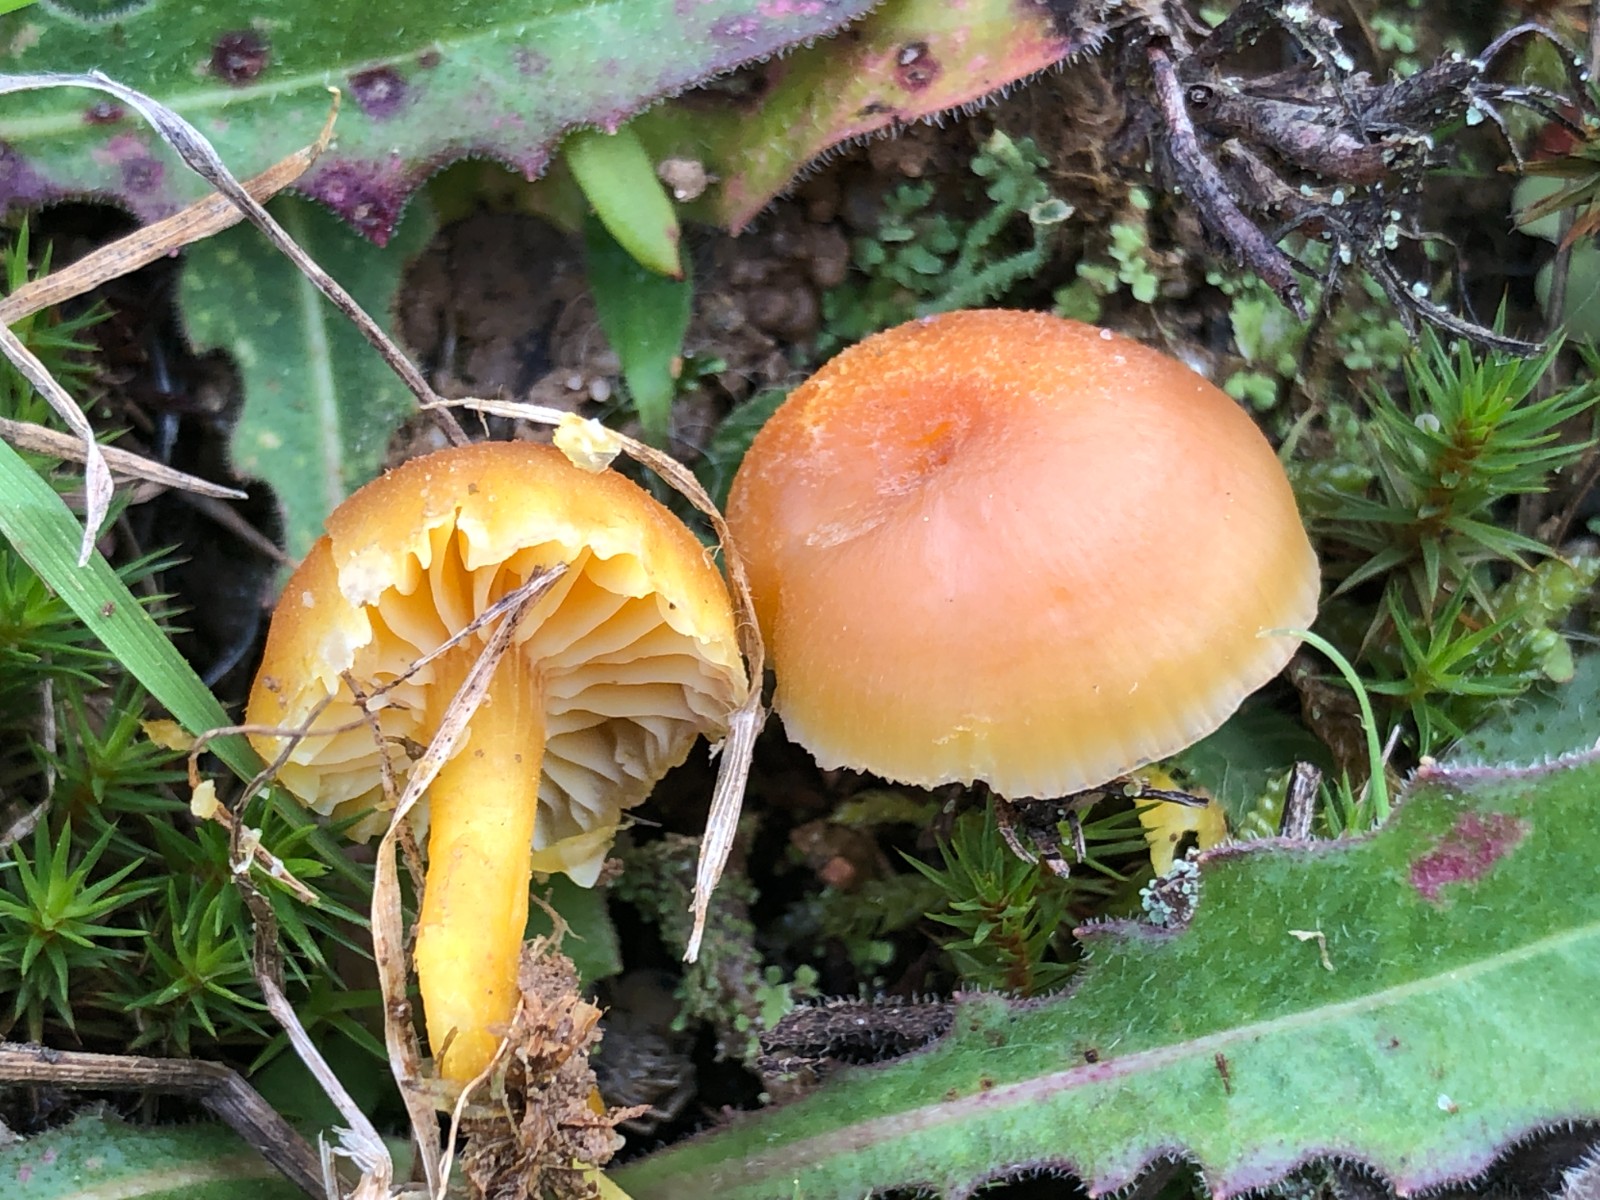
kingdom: Fungi
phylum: Basidiomycota
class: Agaricomycetes
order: Agaricales
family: Hygrophoraceae
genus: Hygrocybe
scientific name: Hygrocybe miniata
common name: mønje-vokshat
